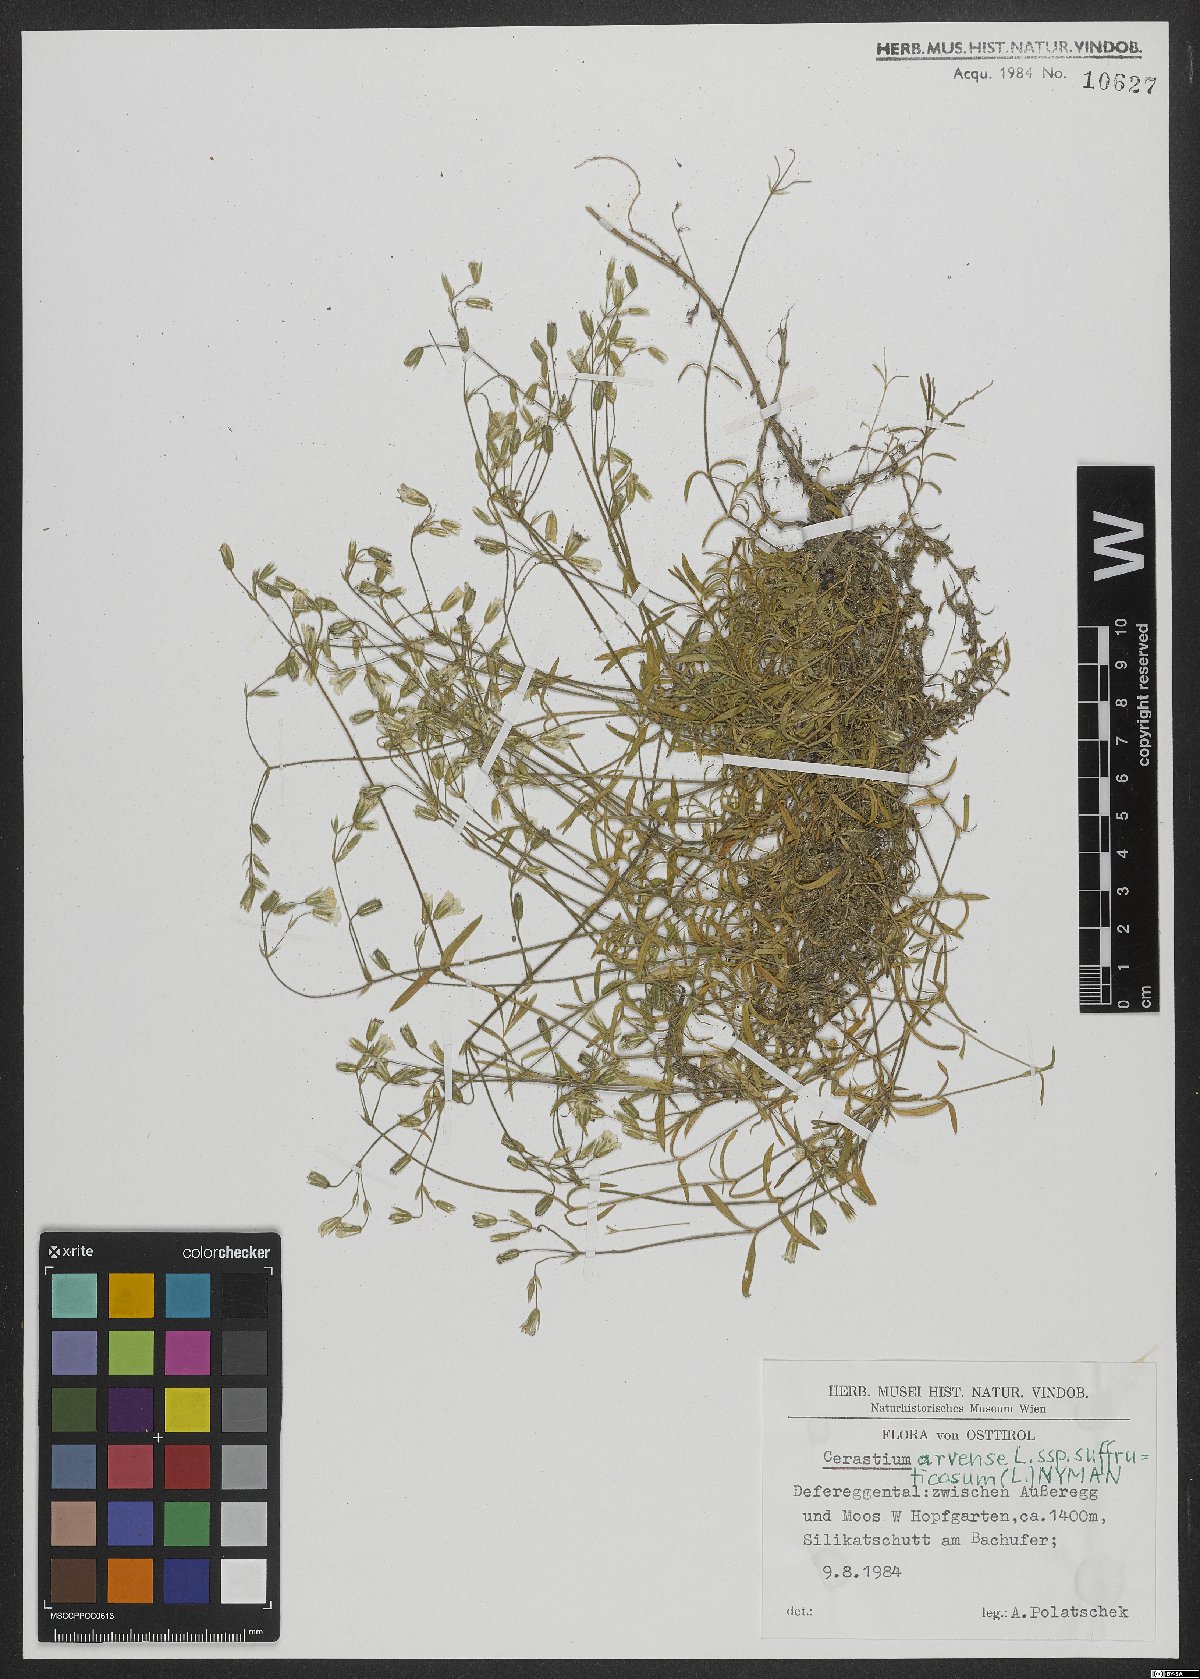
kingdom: Plantae
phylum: Tracheophyta
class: Magnoliopsida
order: Caryophyllales
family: Caryophyllaceae
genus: Cerastium
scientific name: Cerastium arvense
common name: Field mouse-ear
